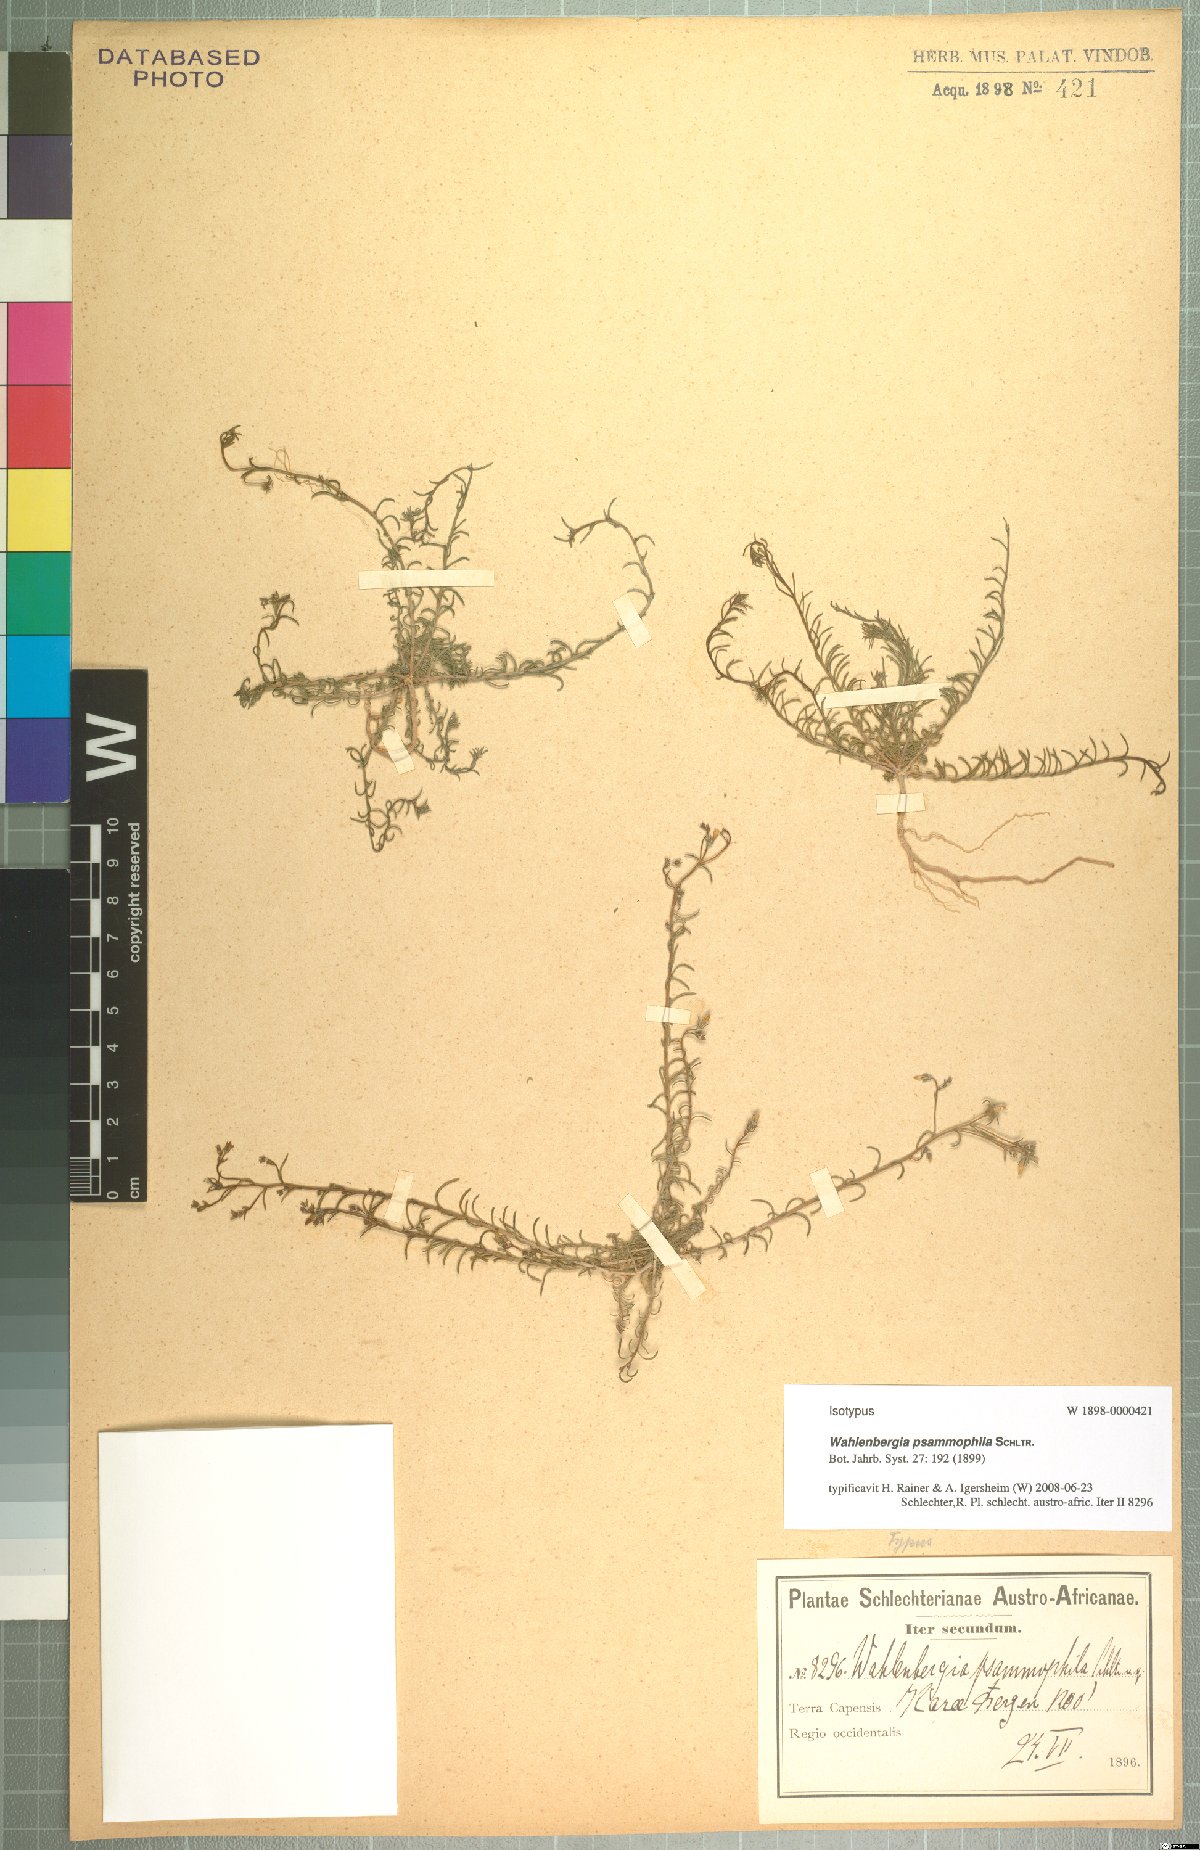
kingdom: Plantae
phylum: Tracheophyta
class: Magnoliopsida
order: Asterales
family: Campanulaceae
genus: Wahlenbergia
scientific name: Wahlenbergia psammophila
